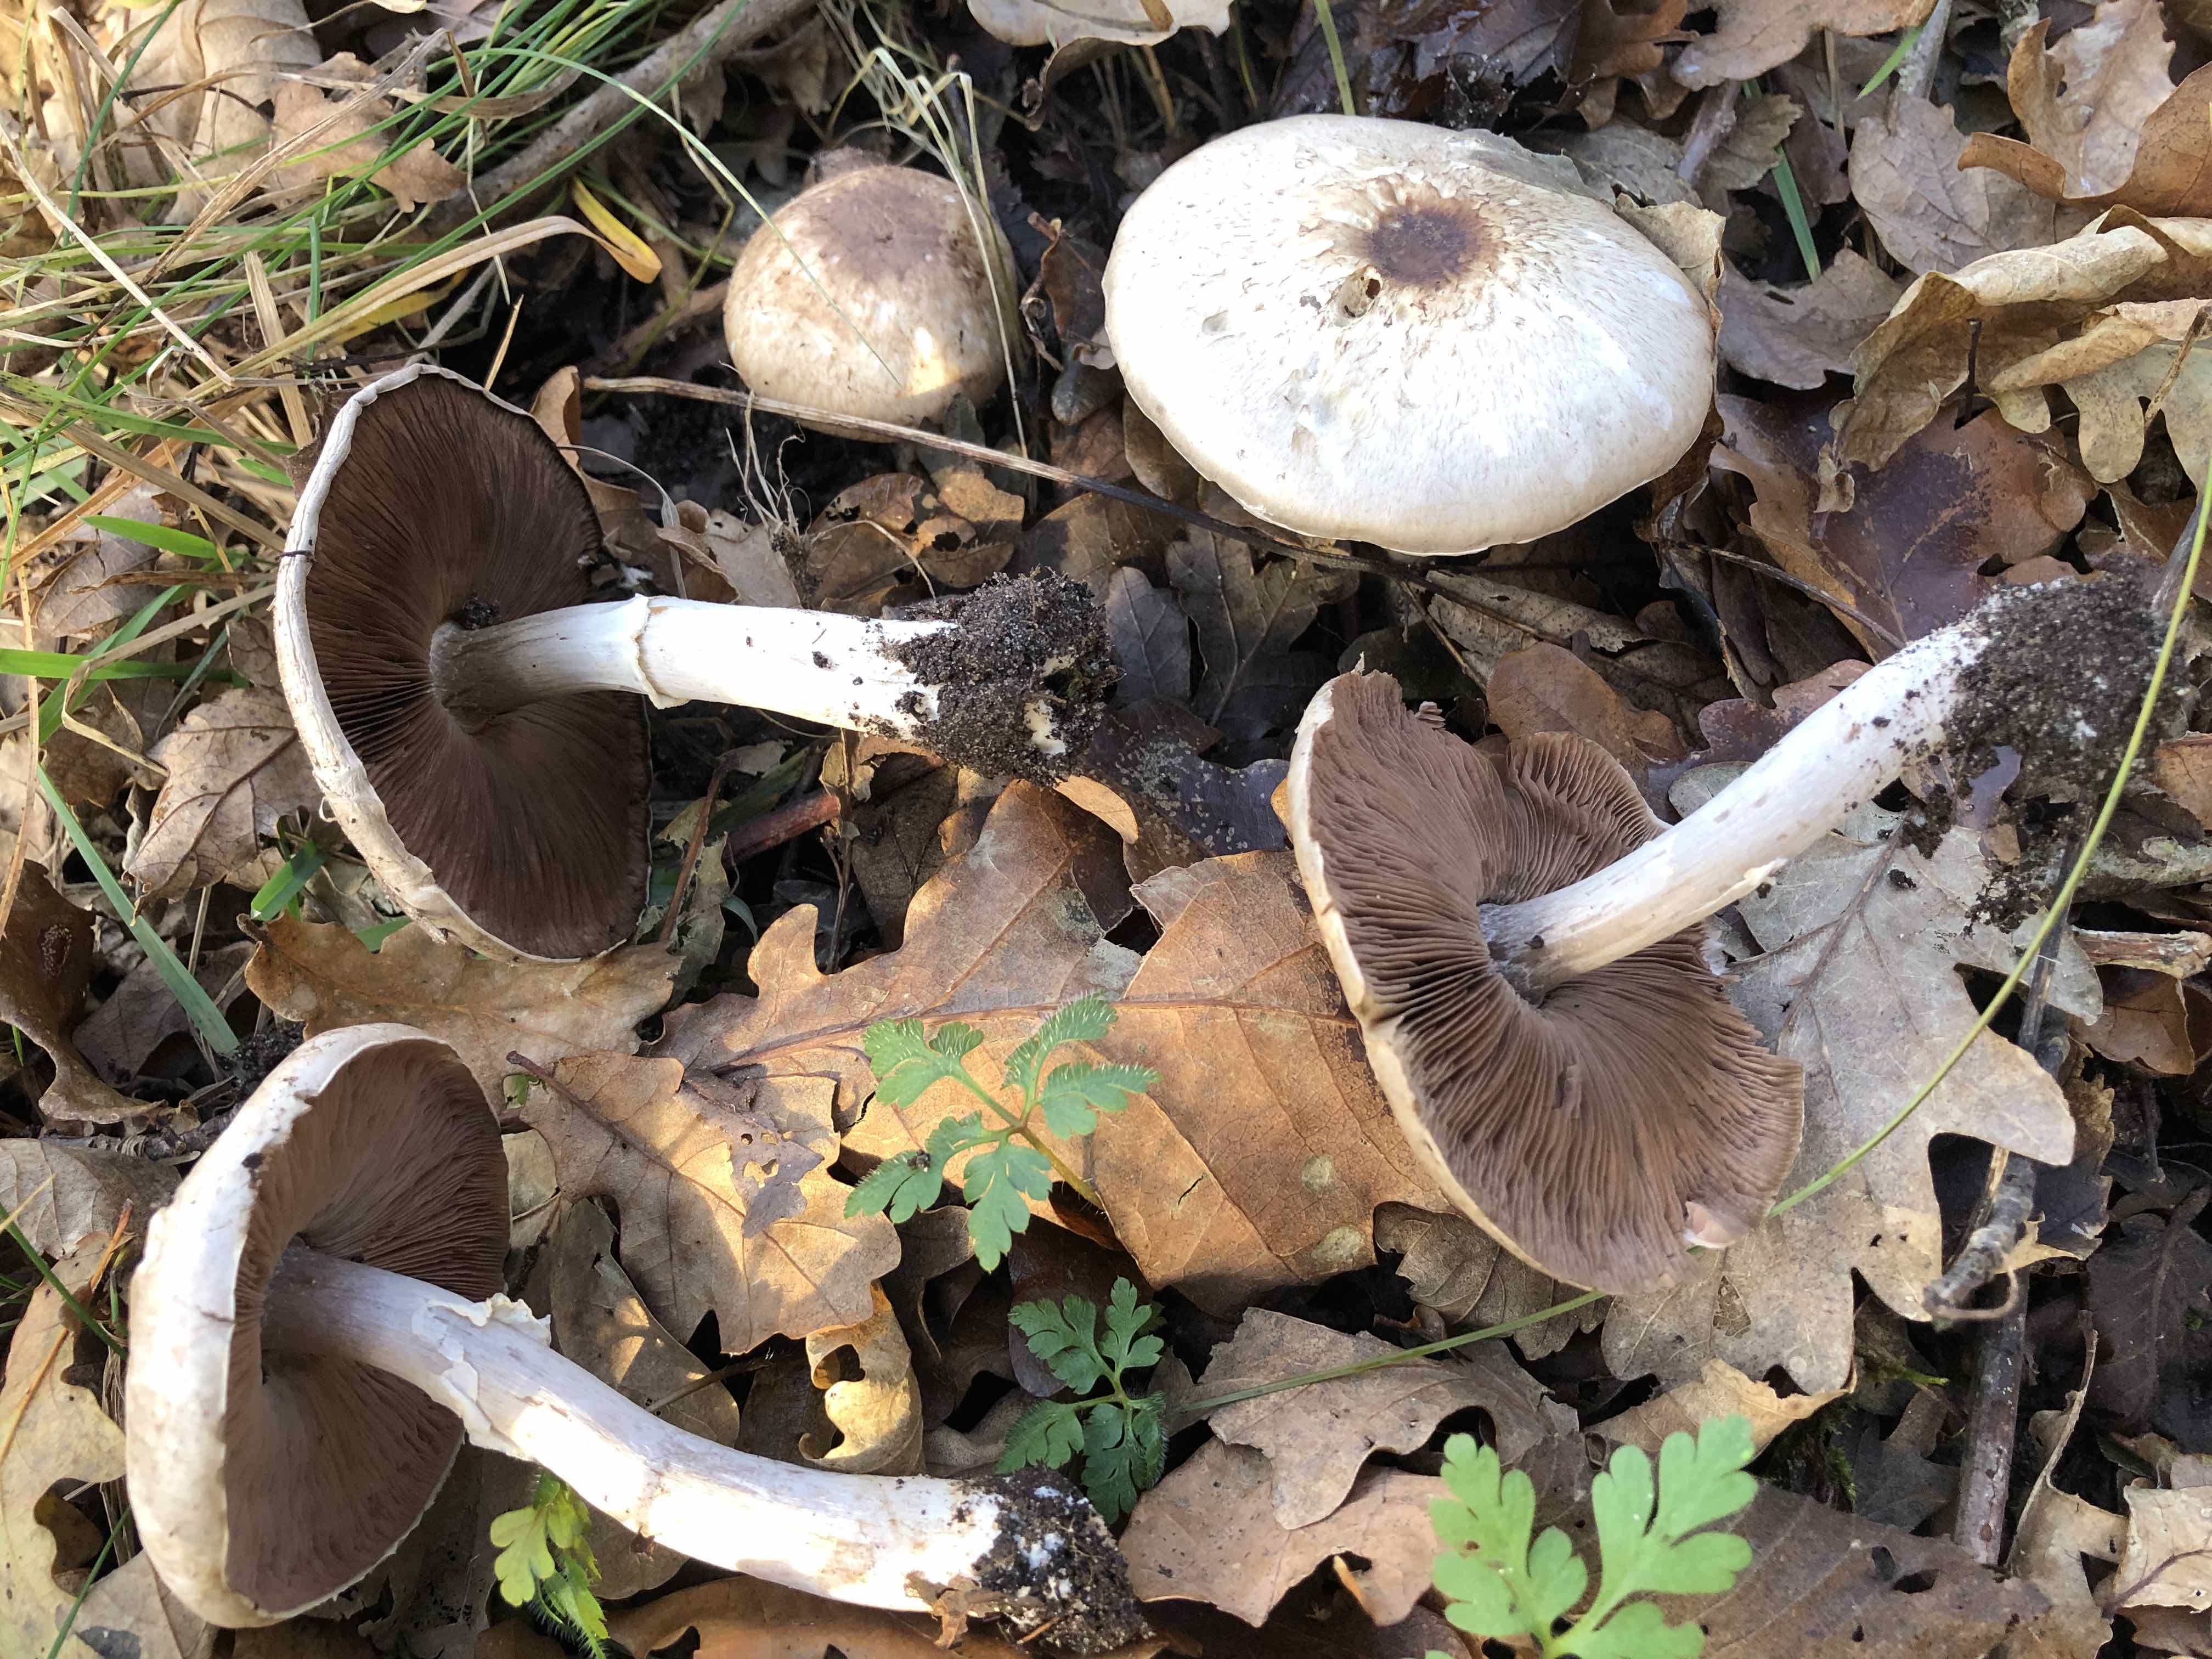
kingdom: Fungi
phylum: Basidiomycota
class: Agaricomycetes
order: Agaricales
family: Agaricaceae
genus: Agaricus
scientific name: Agaricus impudicus
